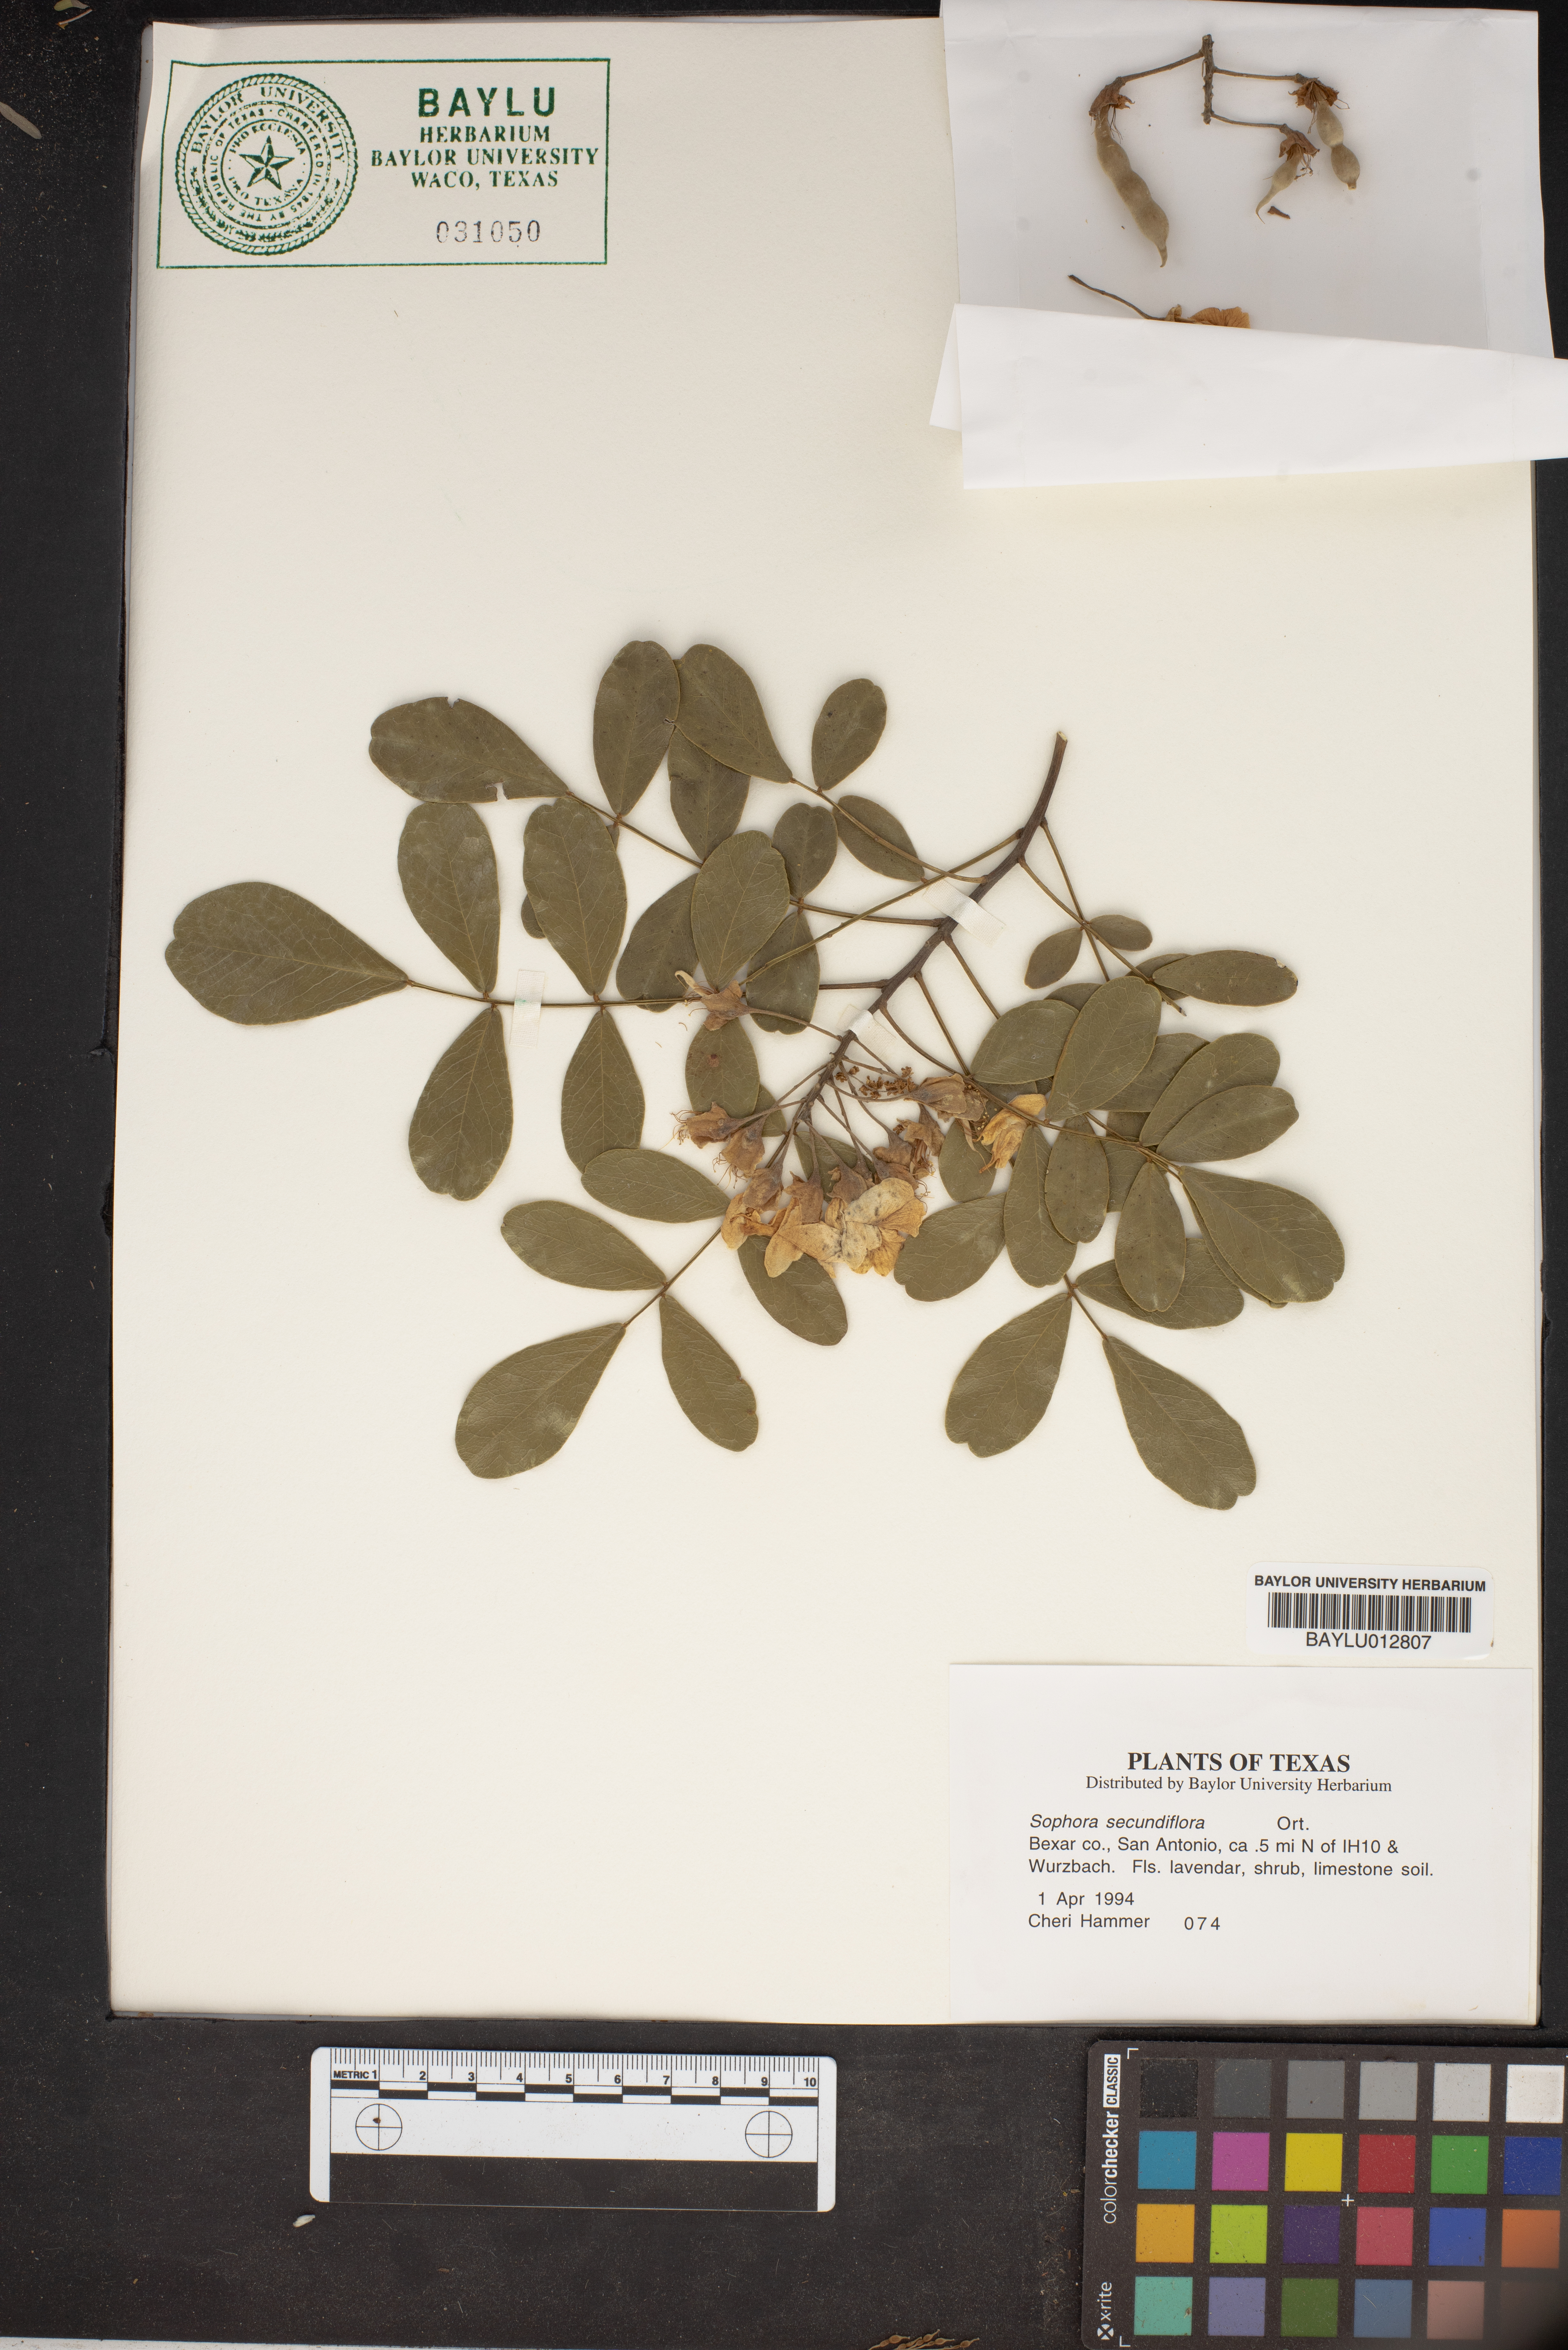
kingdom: Plantae
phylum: Tracheophyta
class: Magnoliopsida
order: Fabales
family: Fabaceae
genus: Dermatophyllum
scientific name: Dermatophyllum secundiflorum
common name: Texas-mountain-laurel
